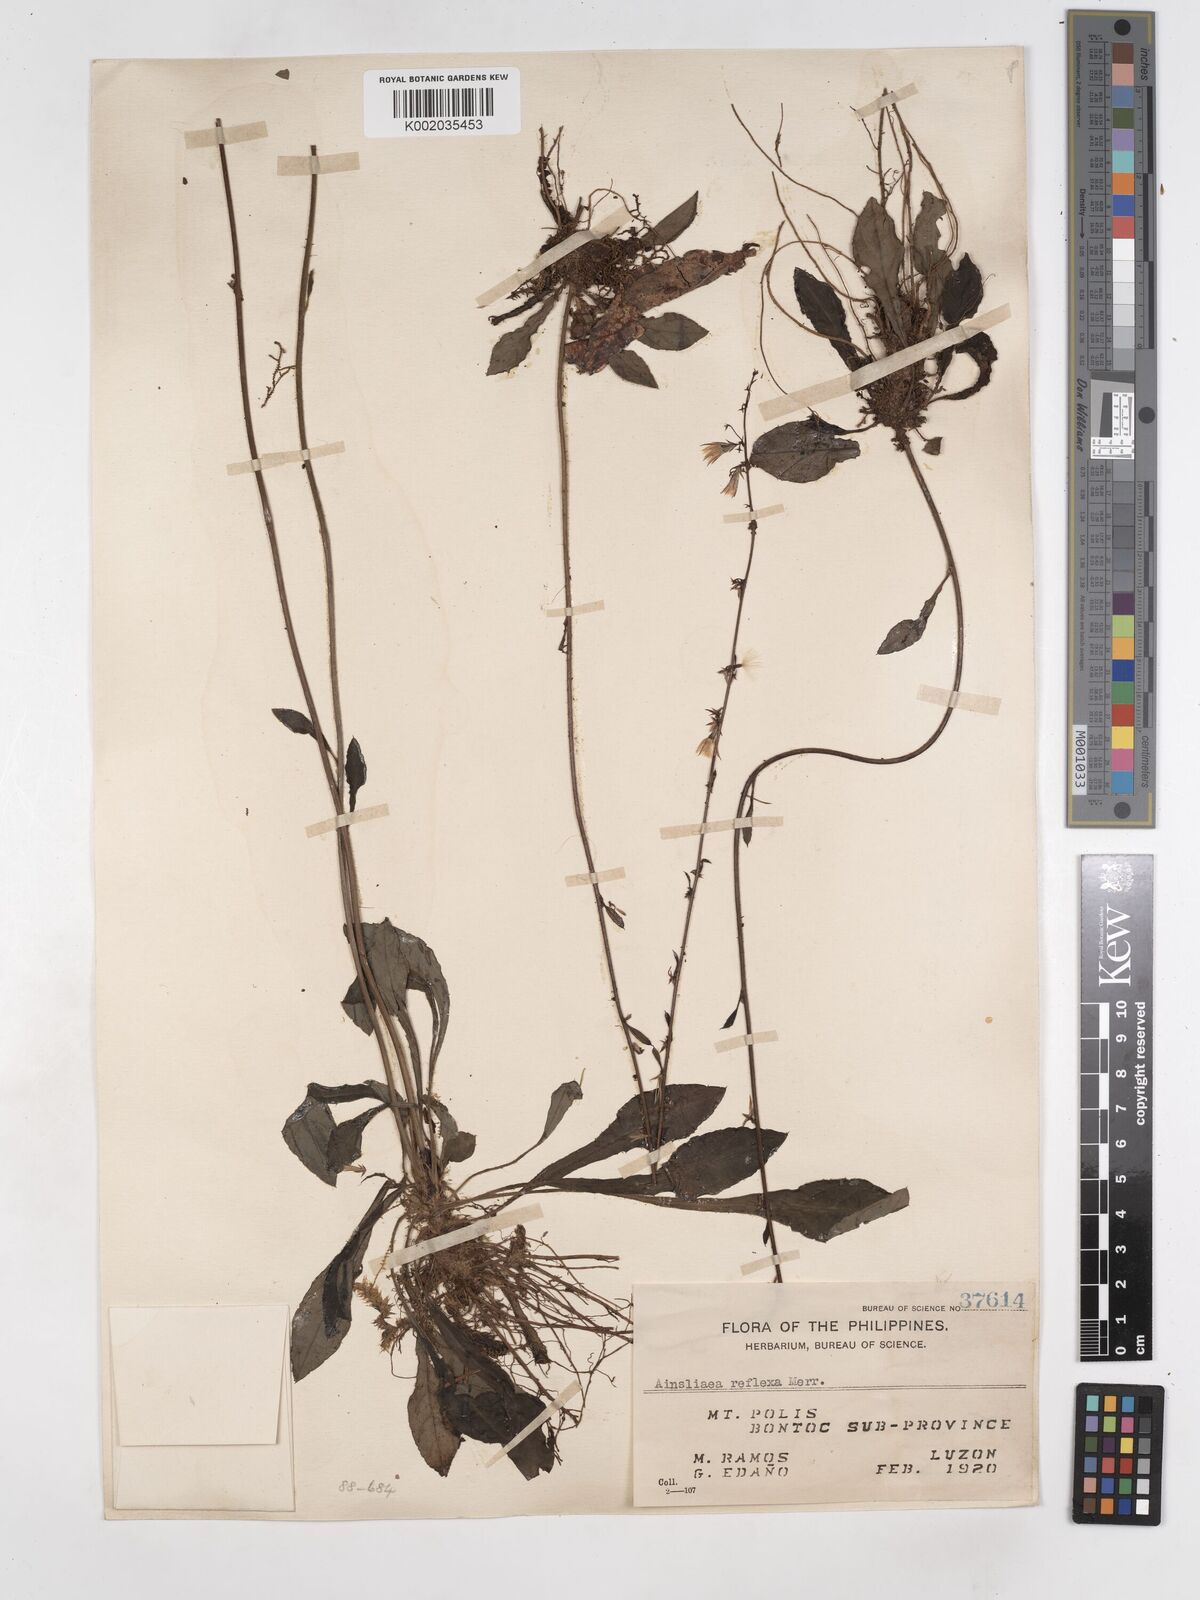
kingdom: Plantae
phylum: Tracheophyta
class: Magnoliopsida
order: Asterales
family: Asteraceae
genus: Ainsliaea
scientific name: Ainsliaea reflexa
